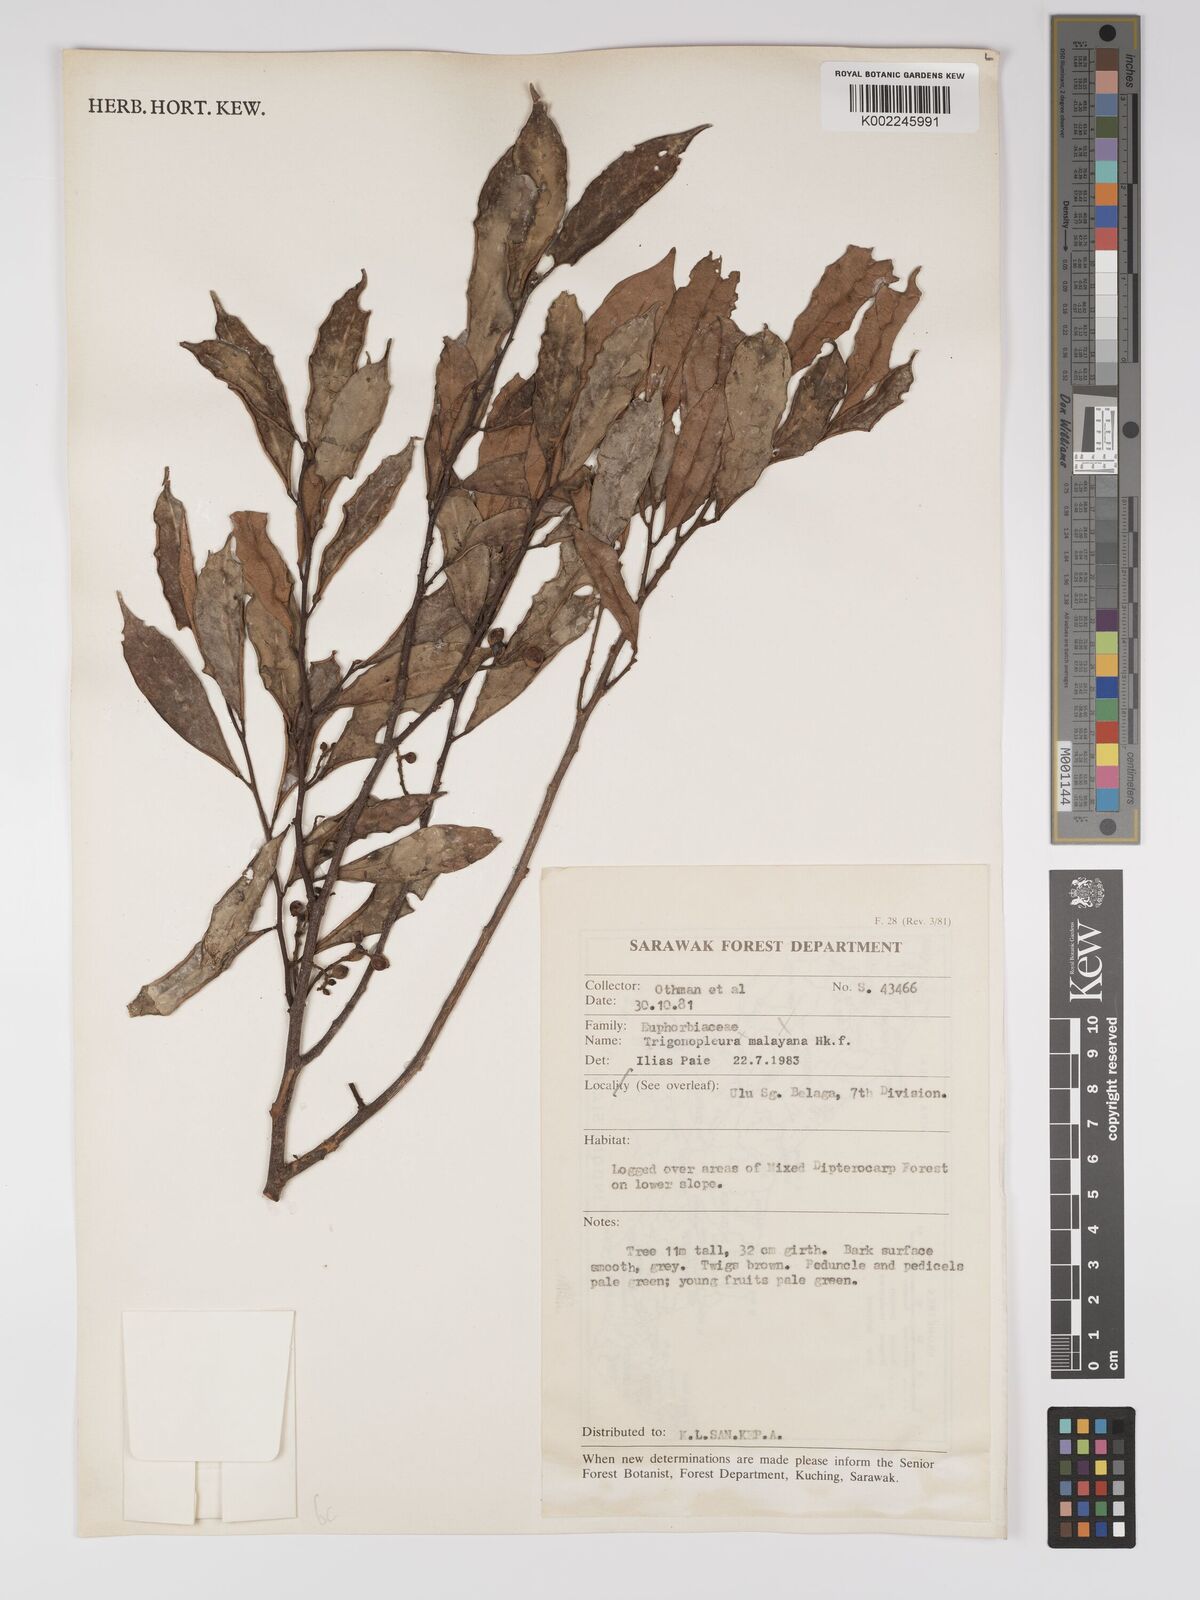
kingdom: Plantae
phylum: Tracheophyta
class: Magnoliopsida
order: Malpighiales
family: Euphorbiaceae
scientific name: Euphorbiaceae
